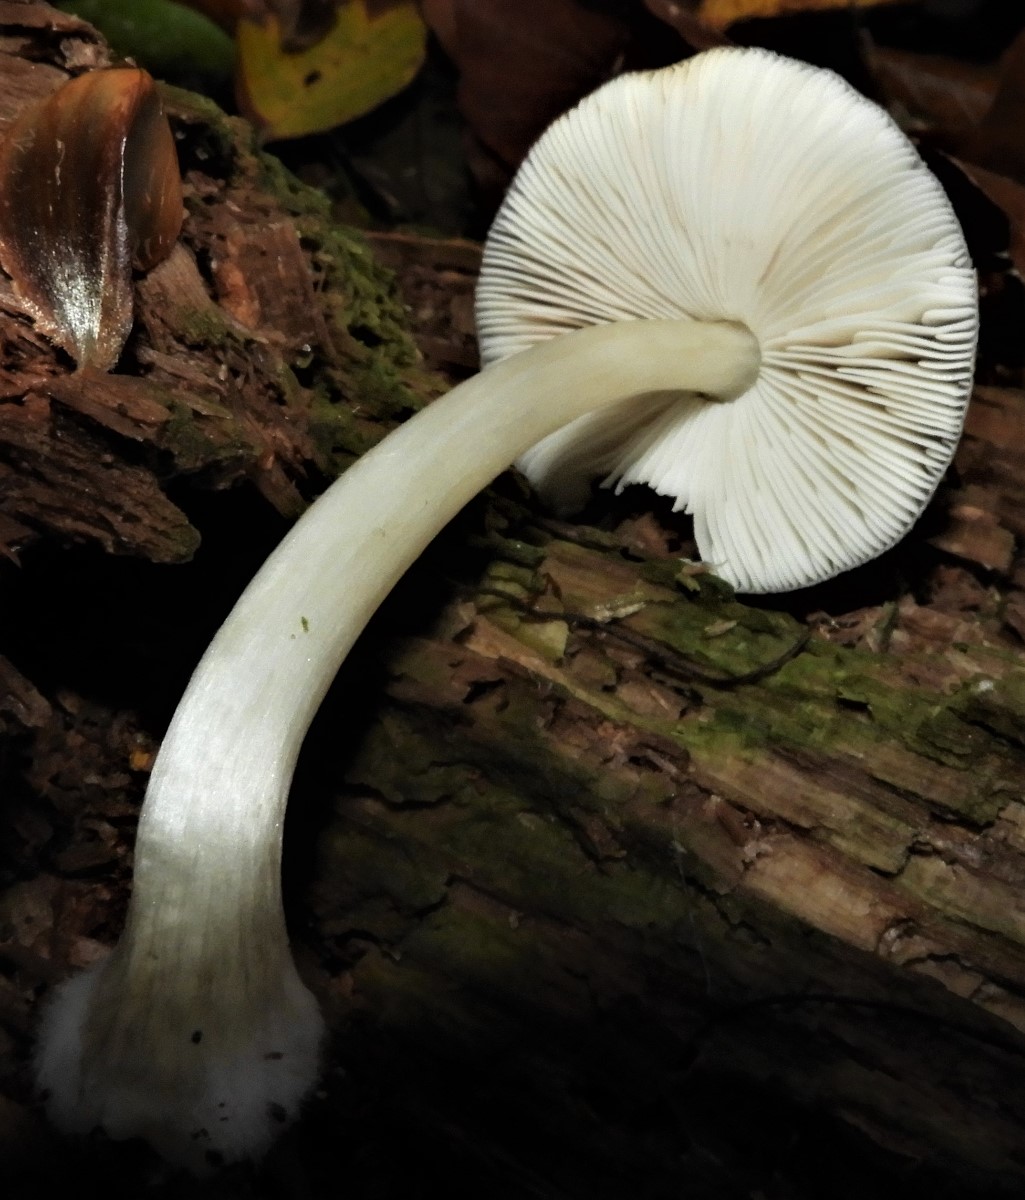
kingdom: Fungi
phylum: Basidiomycota
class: Agaricomycetes
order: Agaricales
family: Pluteaceae
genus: Pluteus
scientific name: Pluteus salicinus
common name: stiv skærmhat
